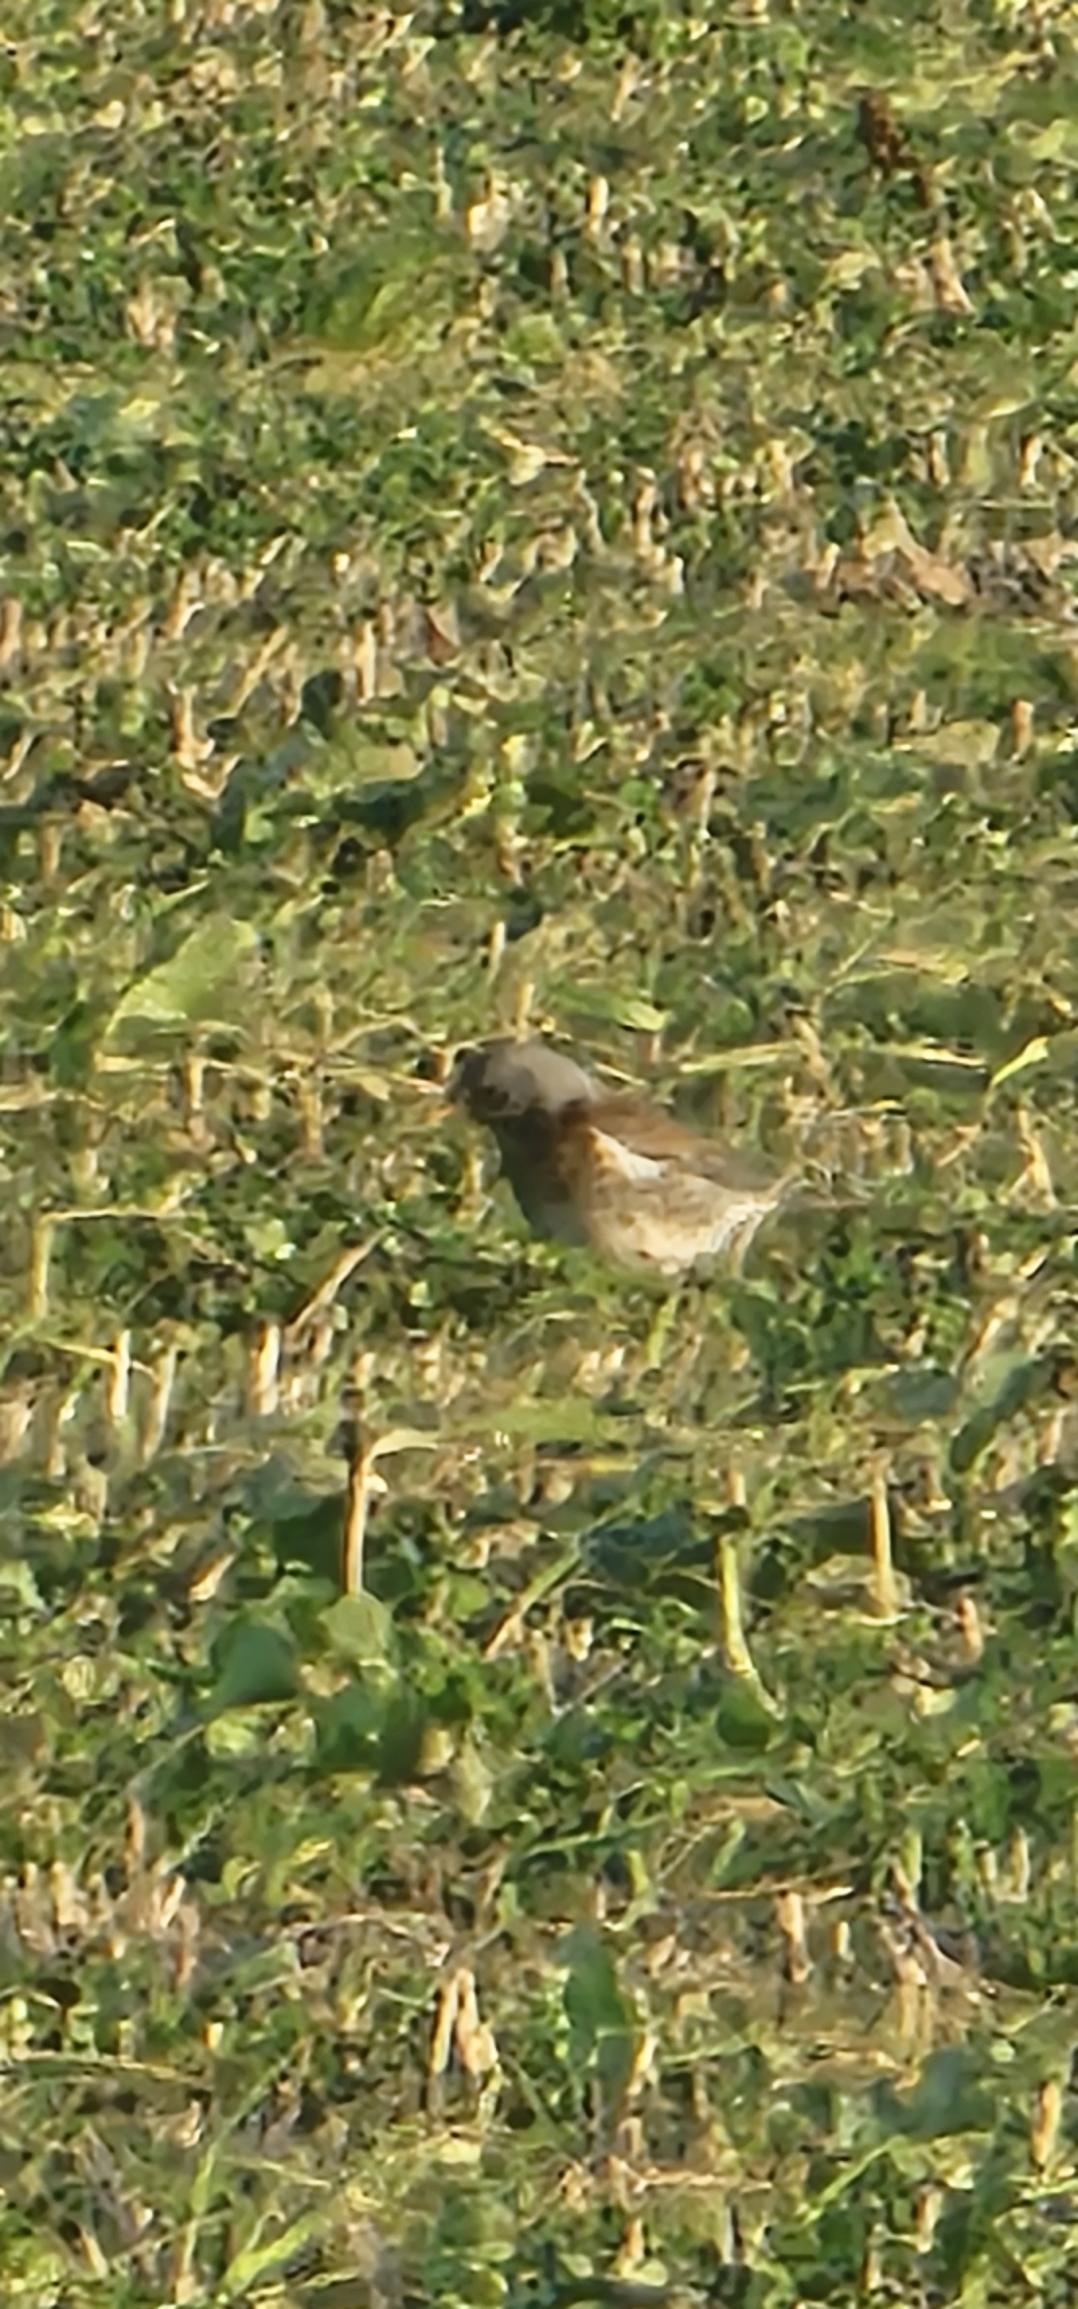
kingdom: Animalia
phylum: Chordata
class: Aves
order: Passeriformes
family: Turdidae
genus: Turdus
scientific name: Turdus pilaris
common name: Sjagger
